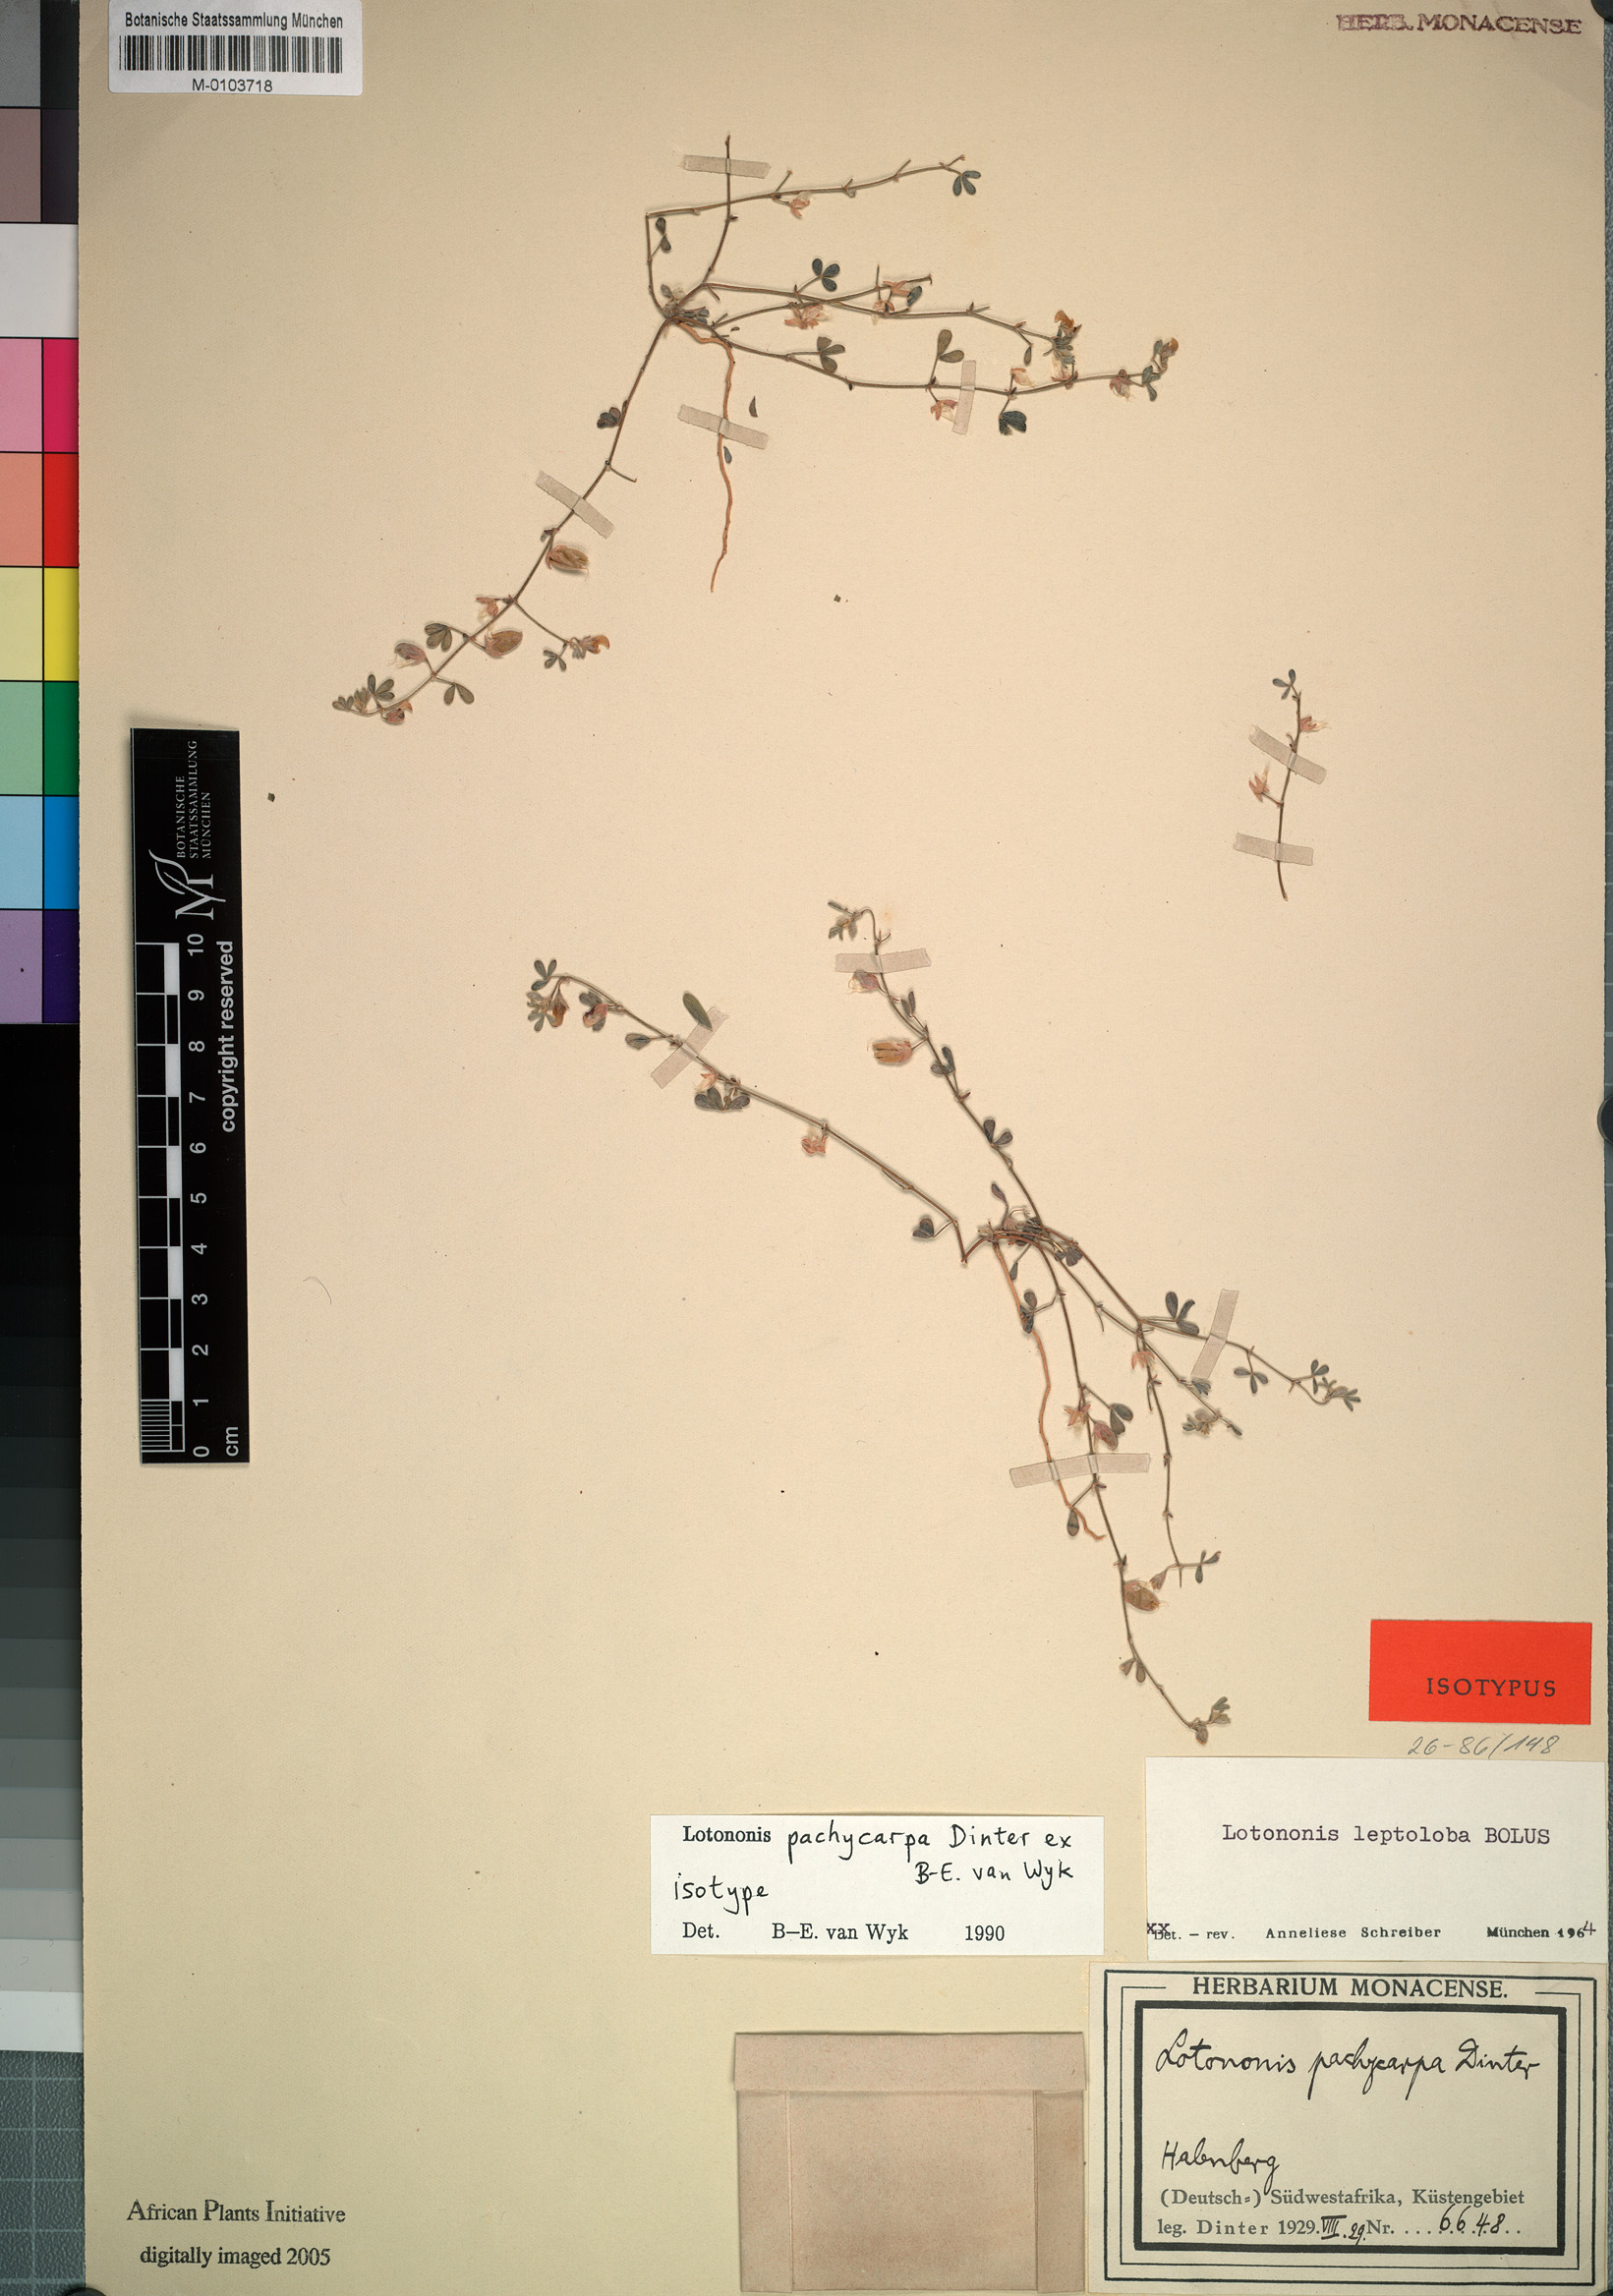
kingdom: Plantae
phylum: Tracheophyta
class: Magnoliopsida
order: Fabales
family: Fabaceae
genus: Lotononis
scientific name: Lotononis pachycarpa
